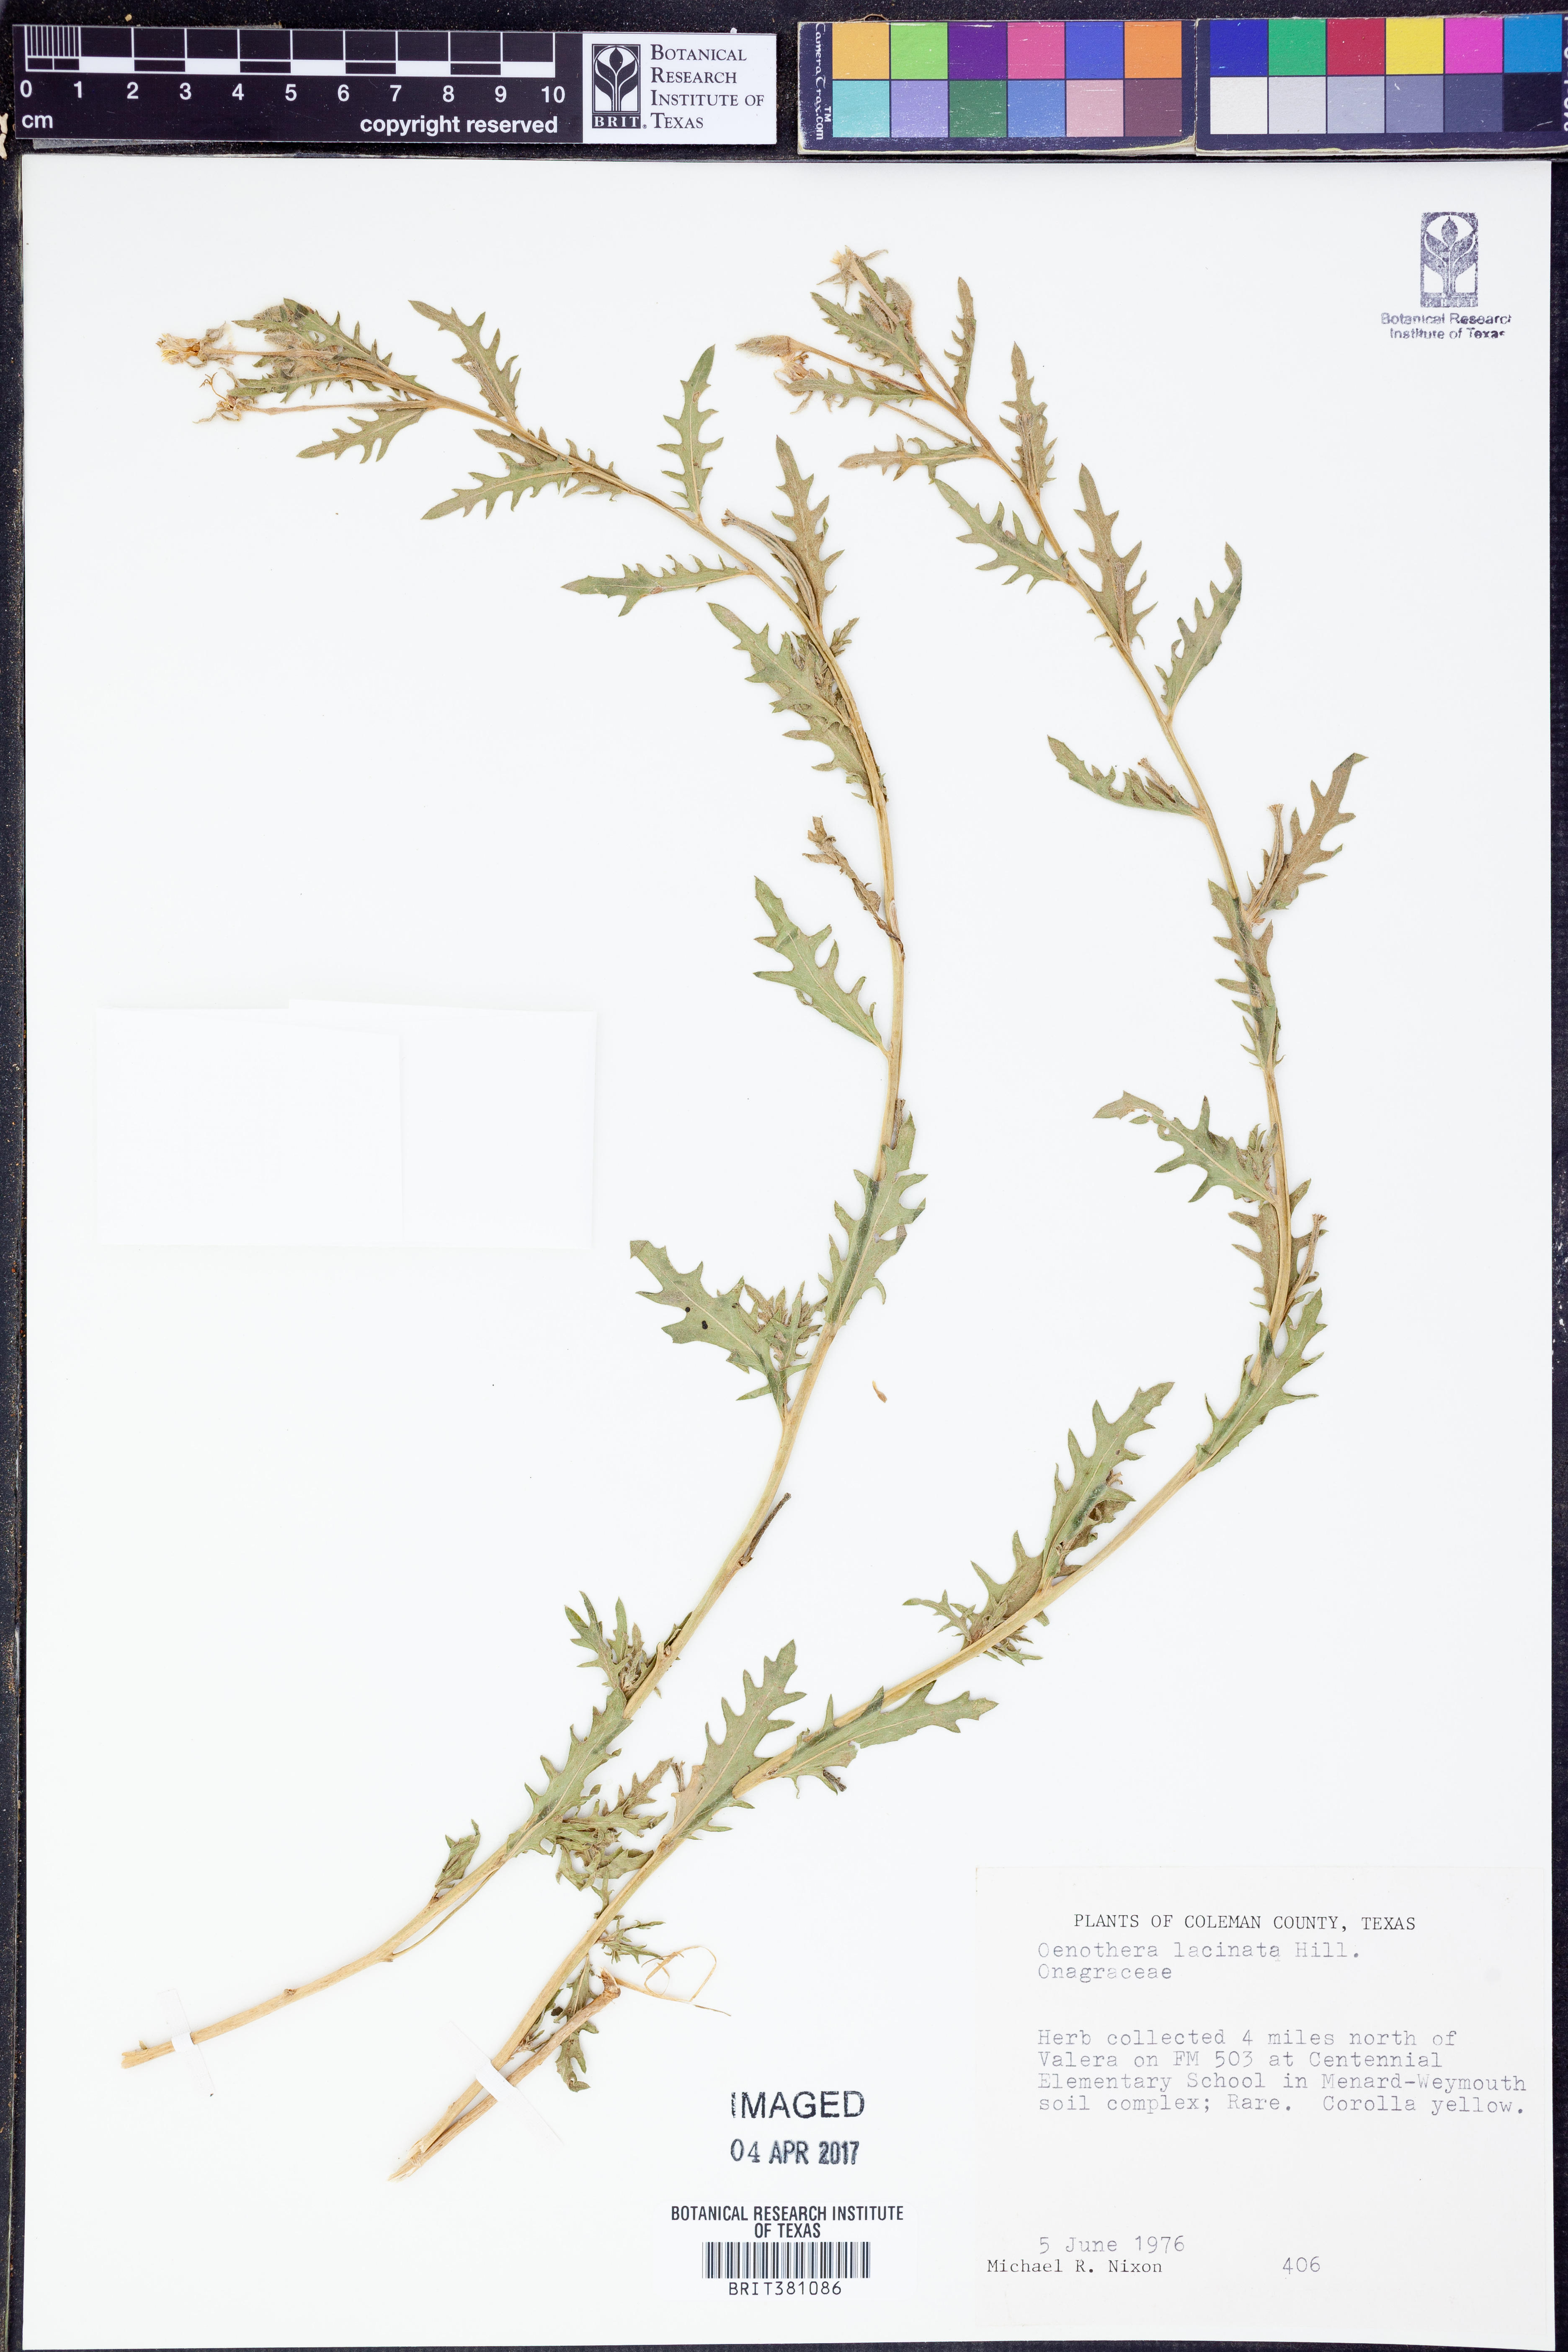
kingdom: Plantae
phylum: Tracheophyta
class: Magnoliopsida
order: Myrtales
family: Onagraceae
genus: Oenothera
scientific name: Oenothera laciniata
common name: Cut-leaved evening-primrose
